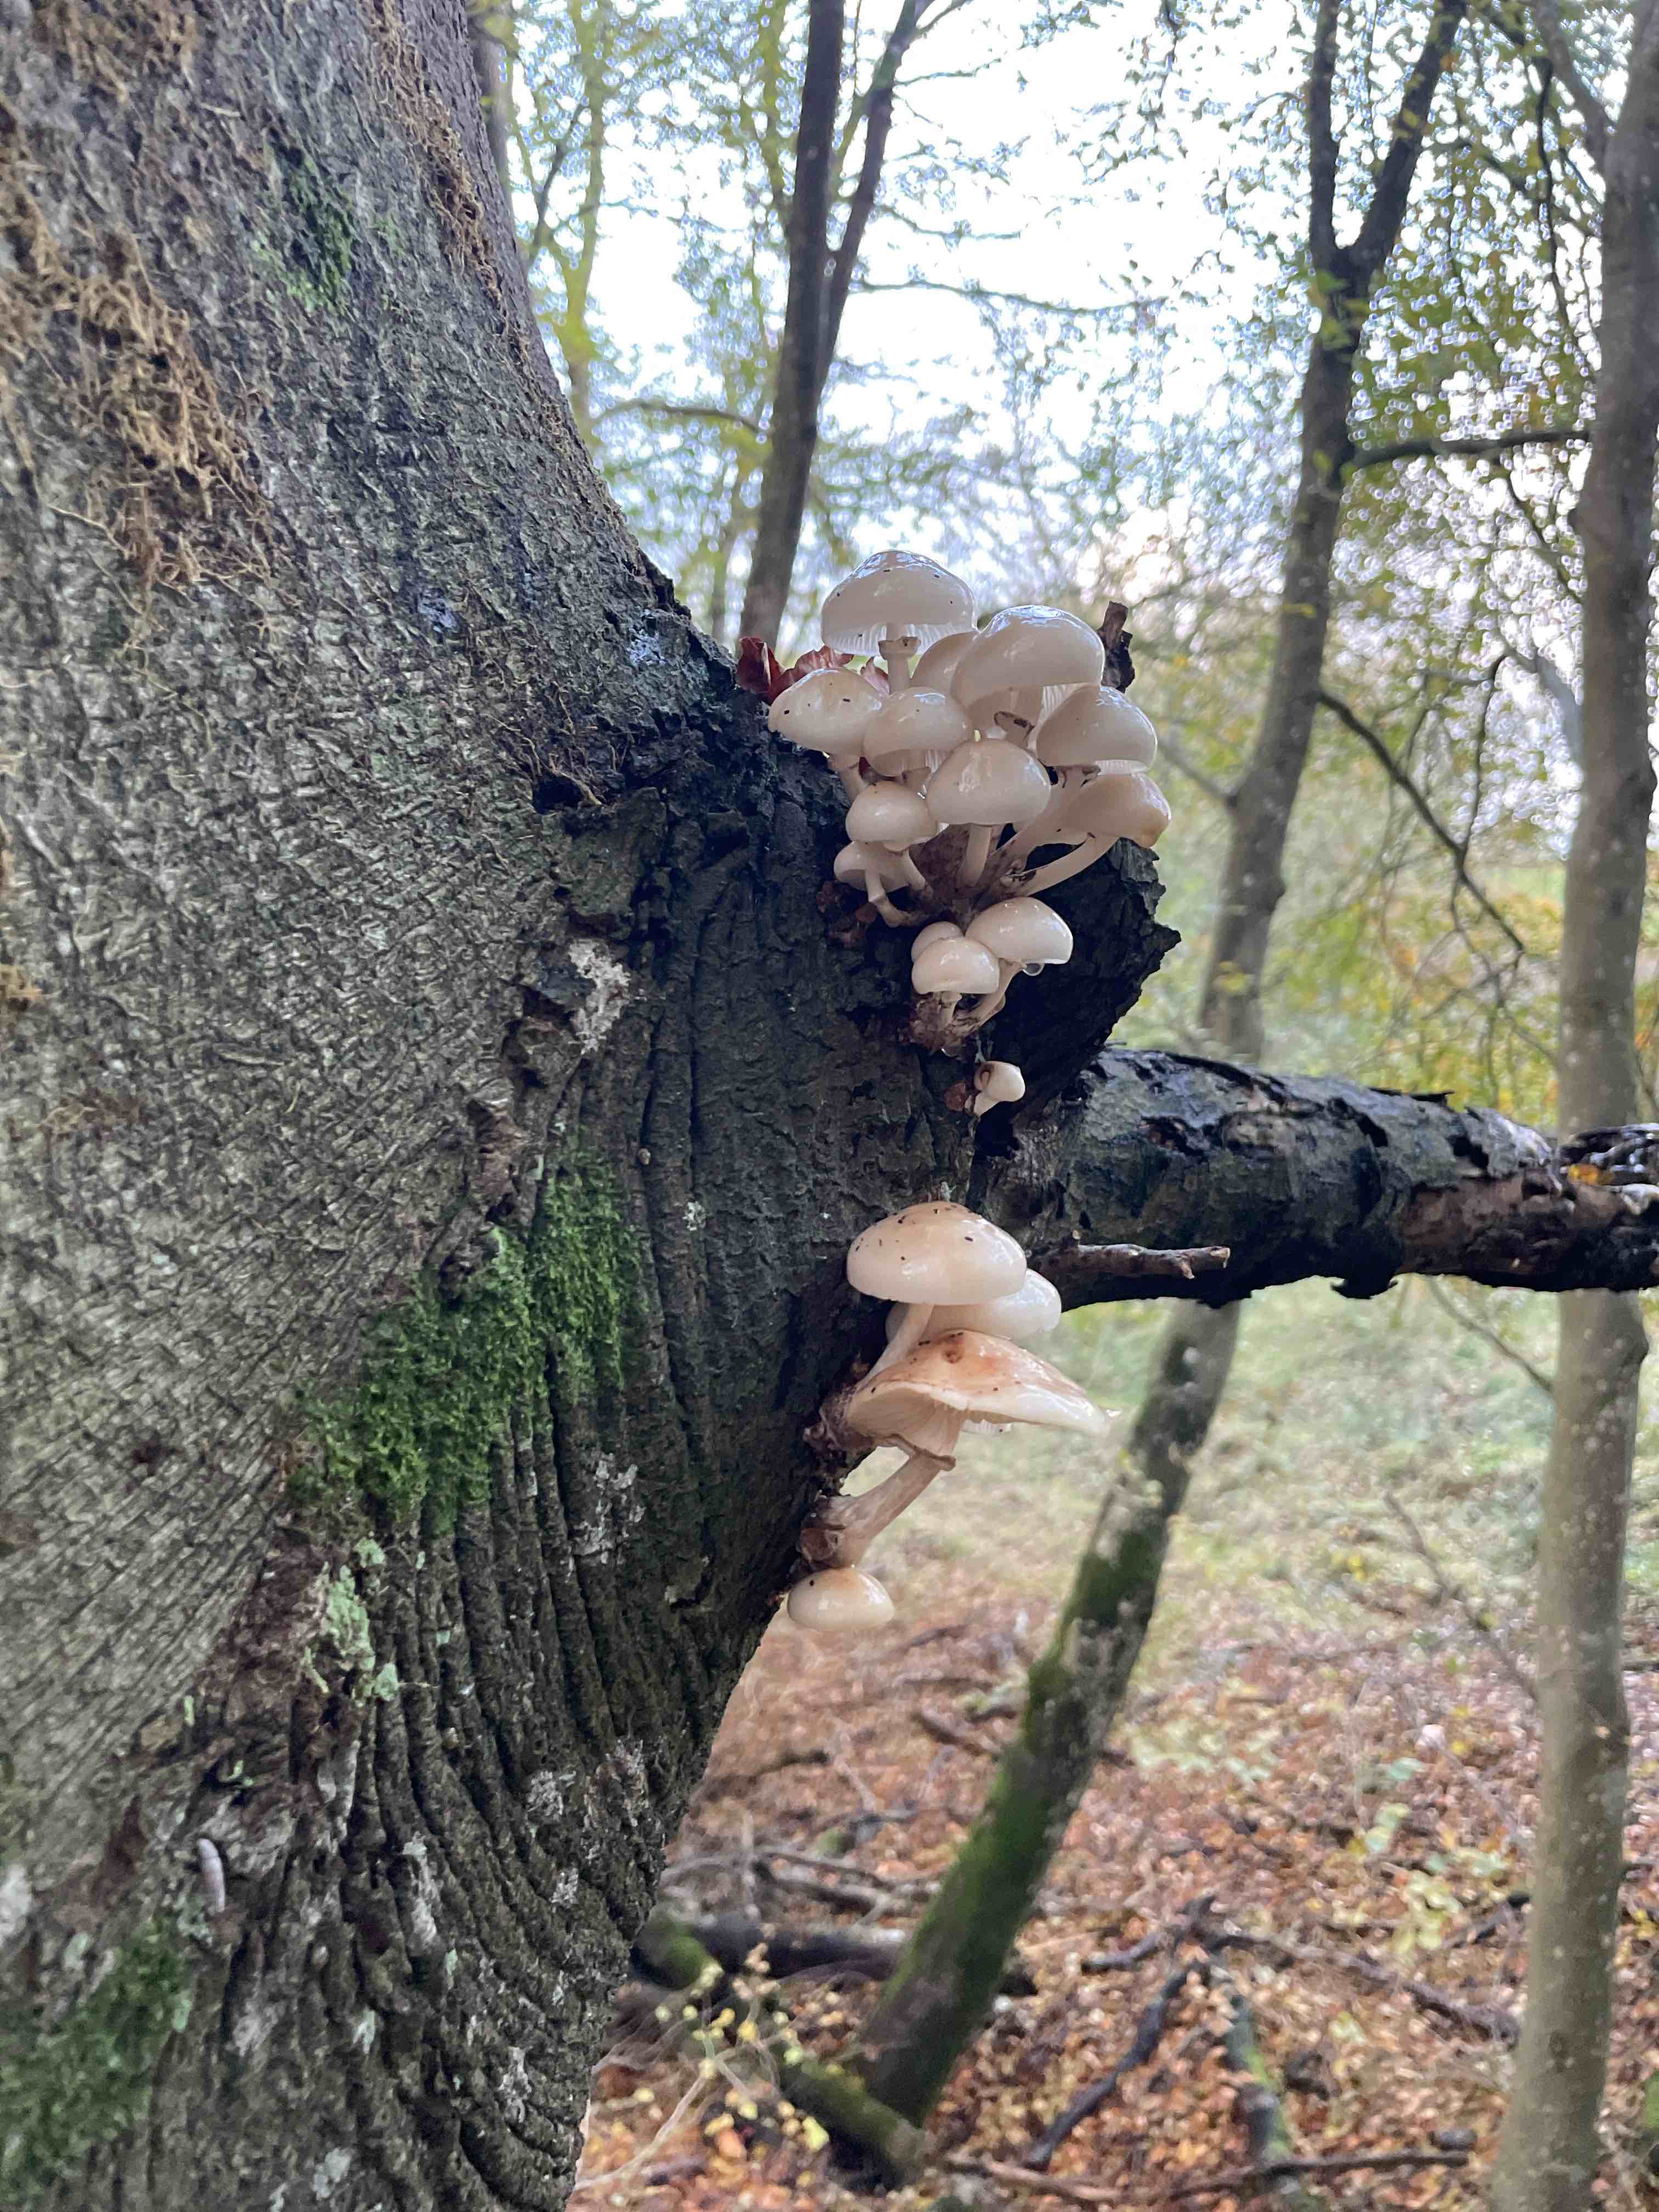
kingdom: Fungi
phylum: Basidiomycota
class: Agaricomycetes
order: Agaricales
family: Physalacriaceae
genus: Mucidula
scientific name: Mucidula mucida
